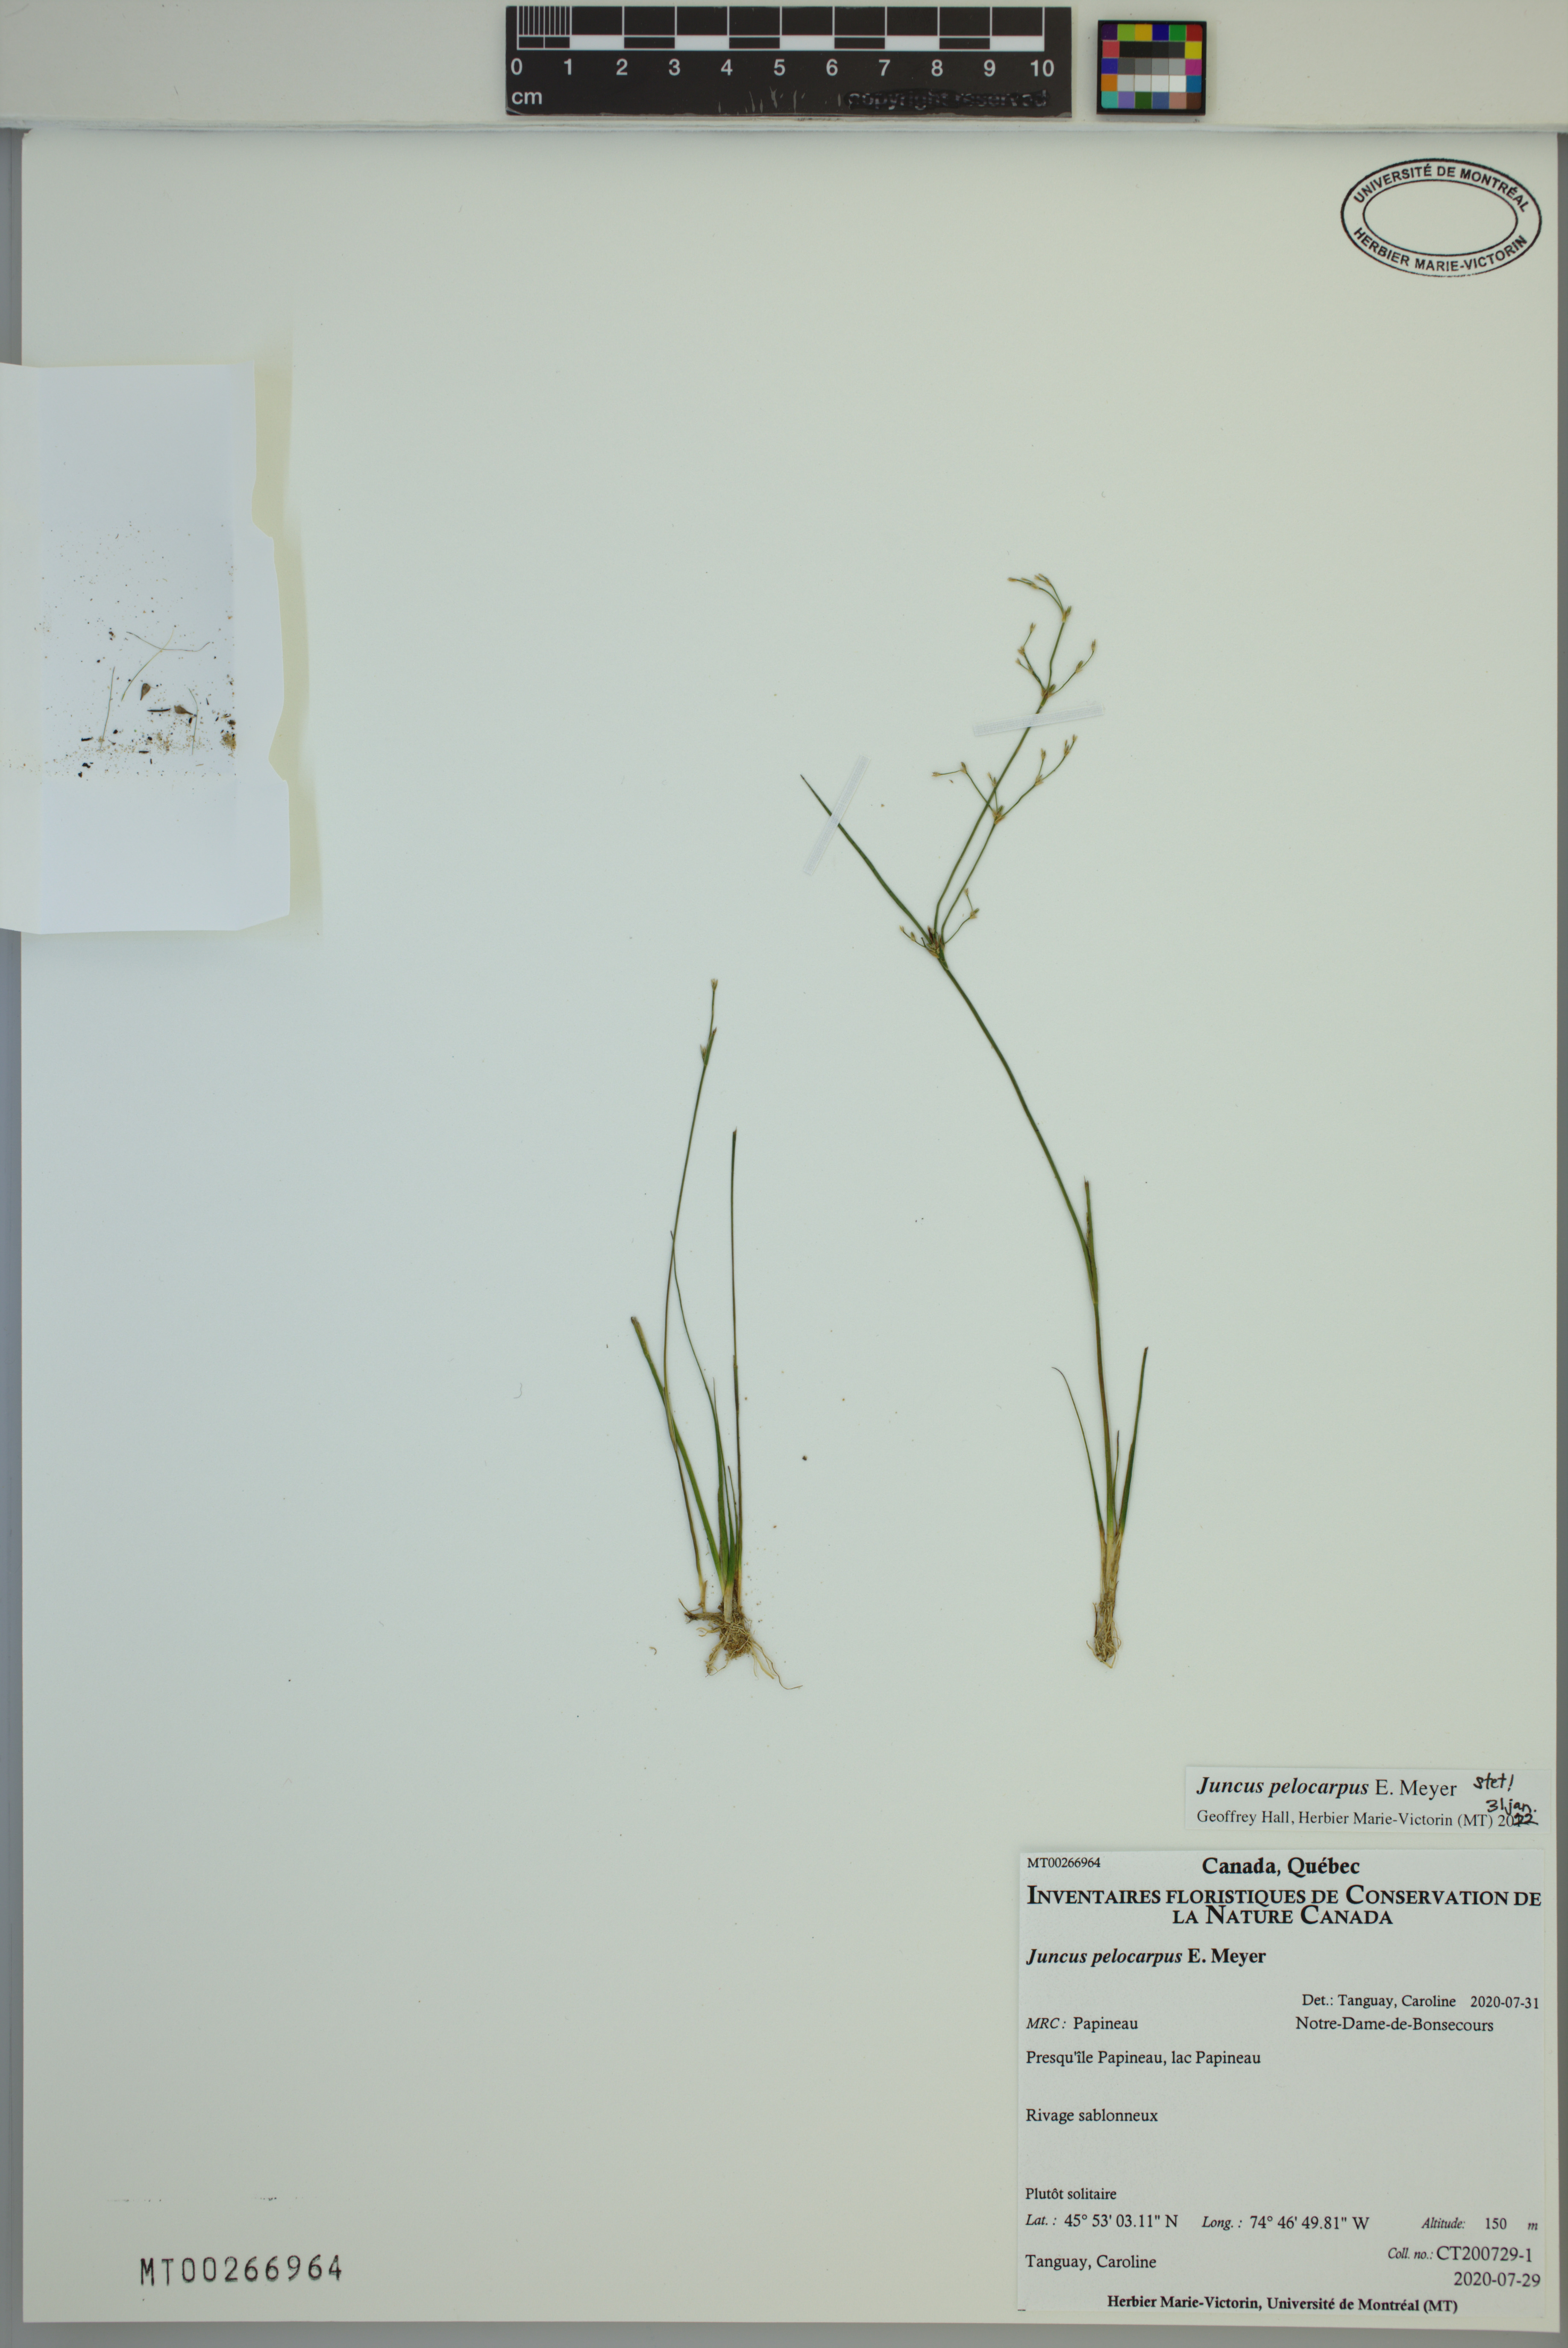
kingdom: Plantae
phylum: Tracheophyta
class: Liliopsida
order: Poales
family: Juncaceae
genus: Juncus
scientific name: Juncus pelocarpus
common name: Brown-fruited rush
